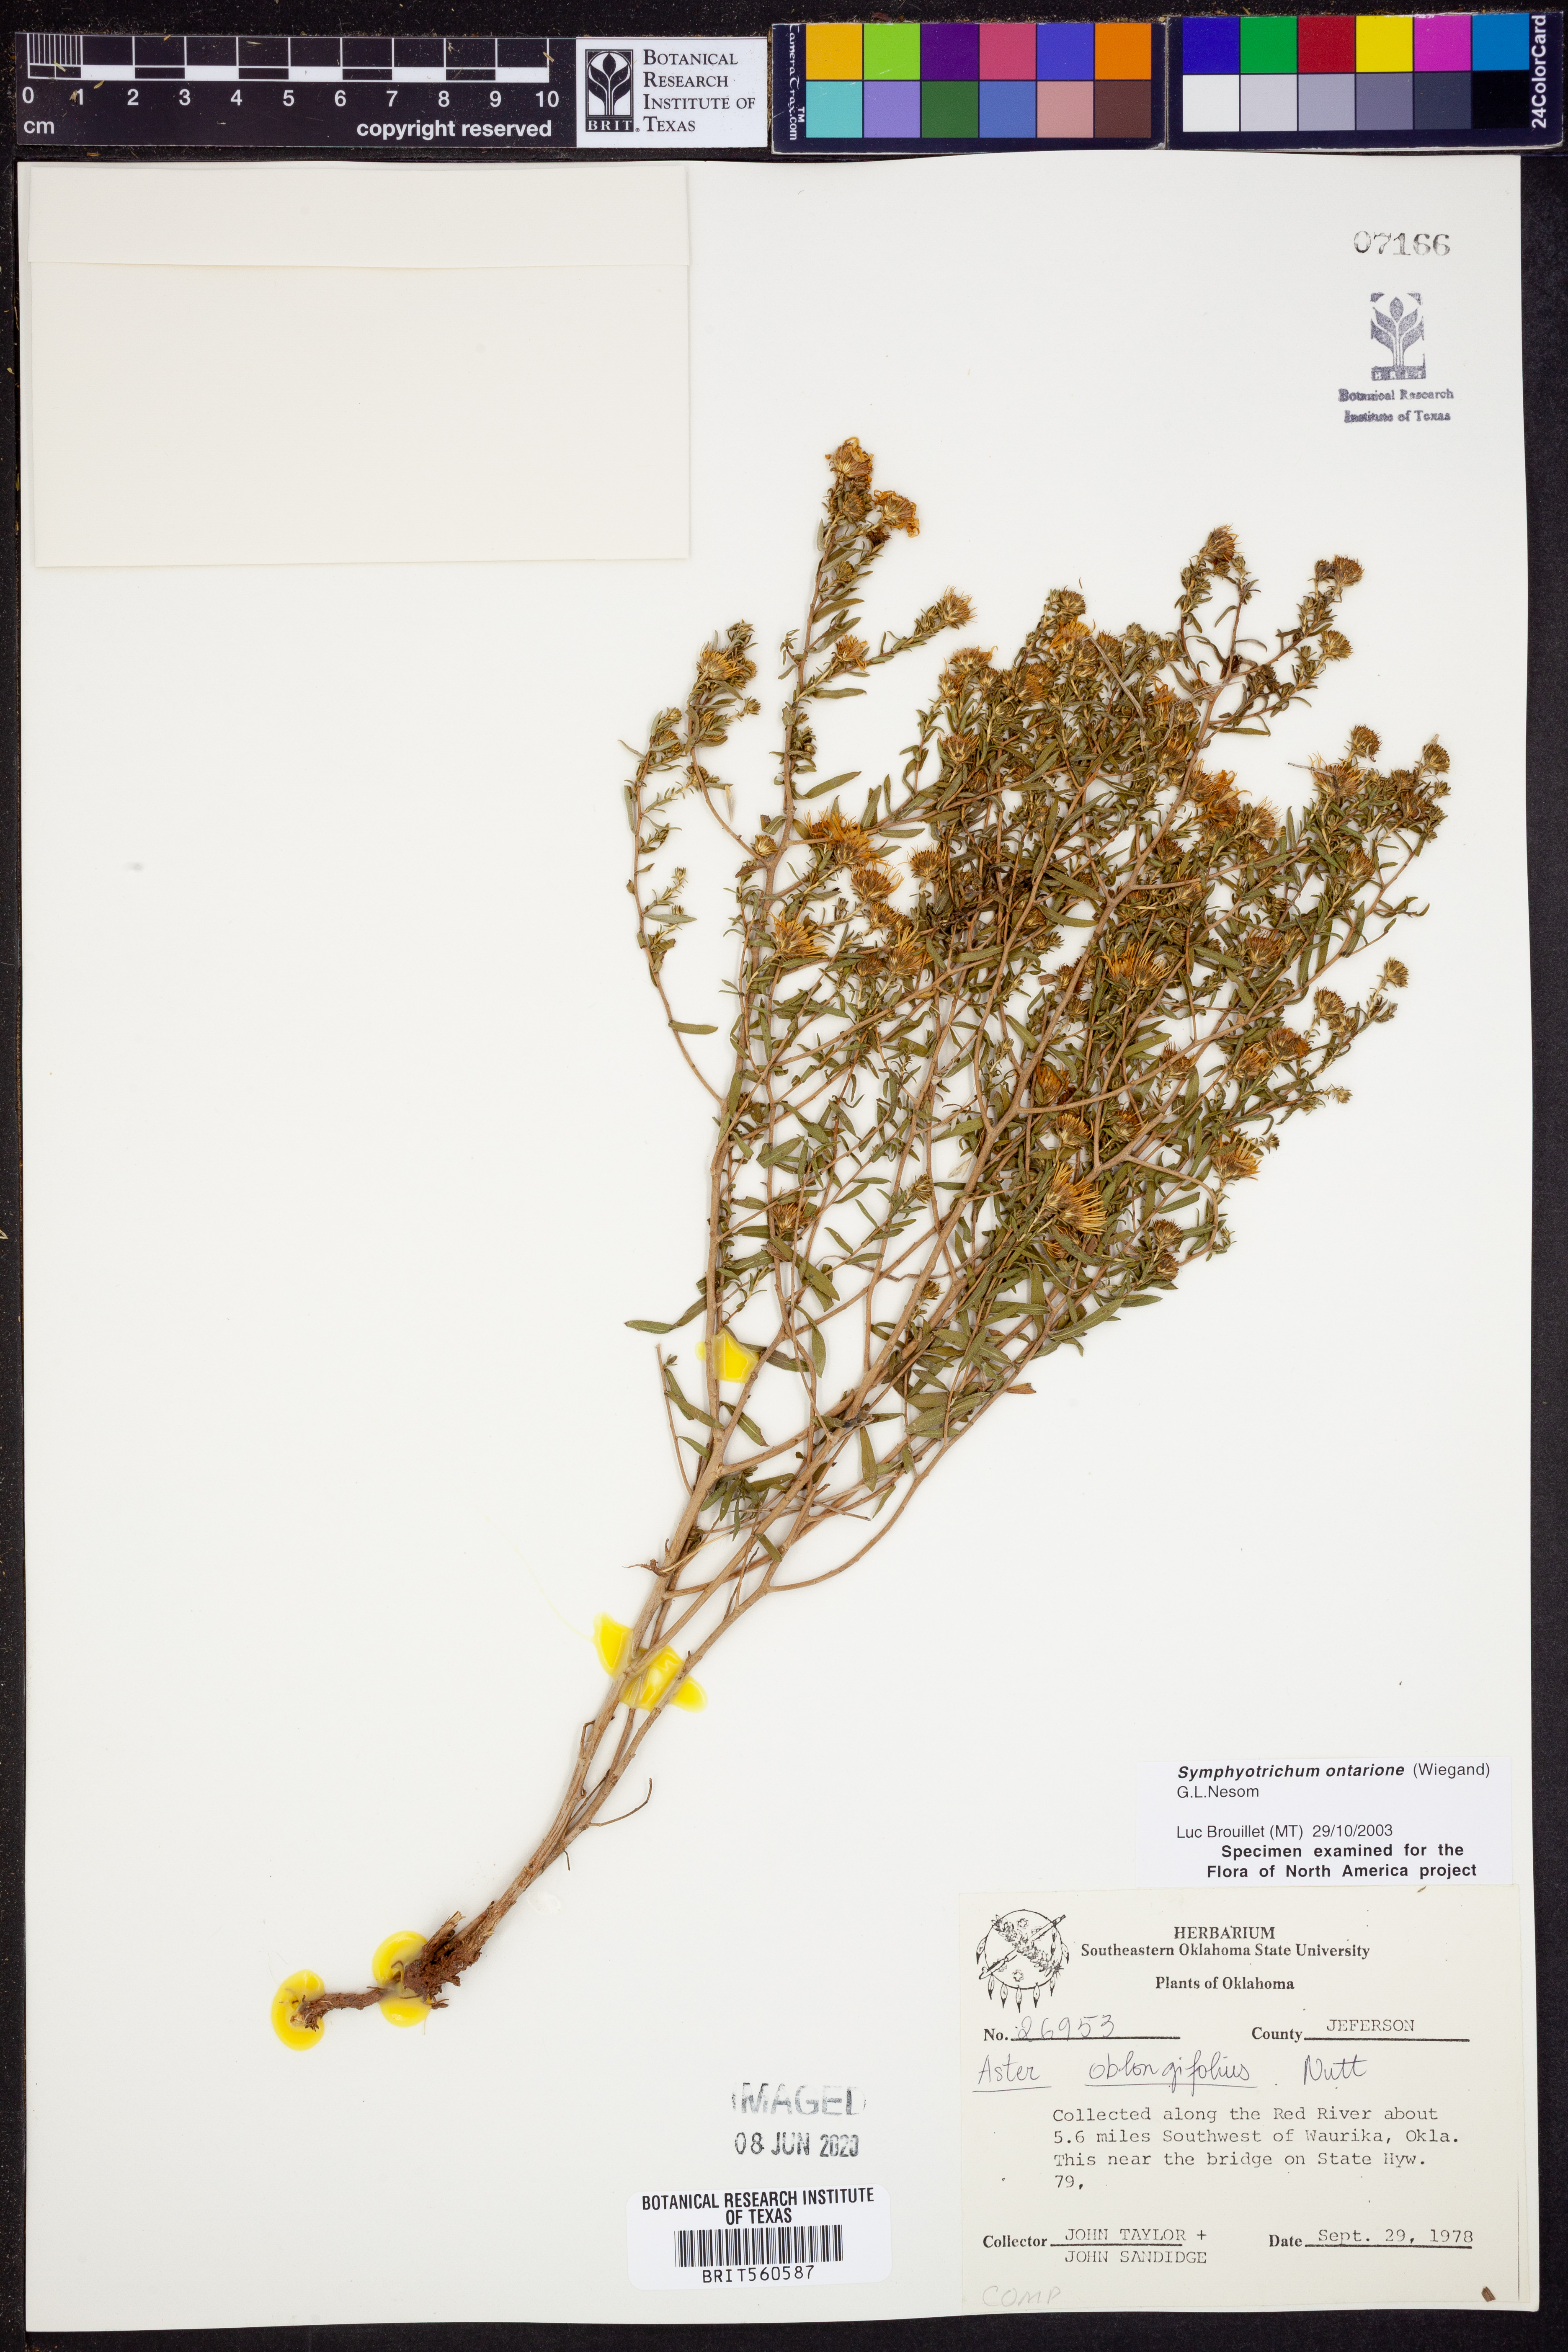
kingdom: Plantae
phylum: Tracheophyta
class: Magnoliopsida
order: Asterales
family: Asteraceae
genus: Symphyotrichum
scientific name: Symphyotrichum ontarionis
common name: Bottomland aster
